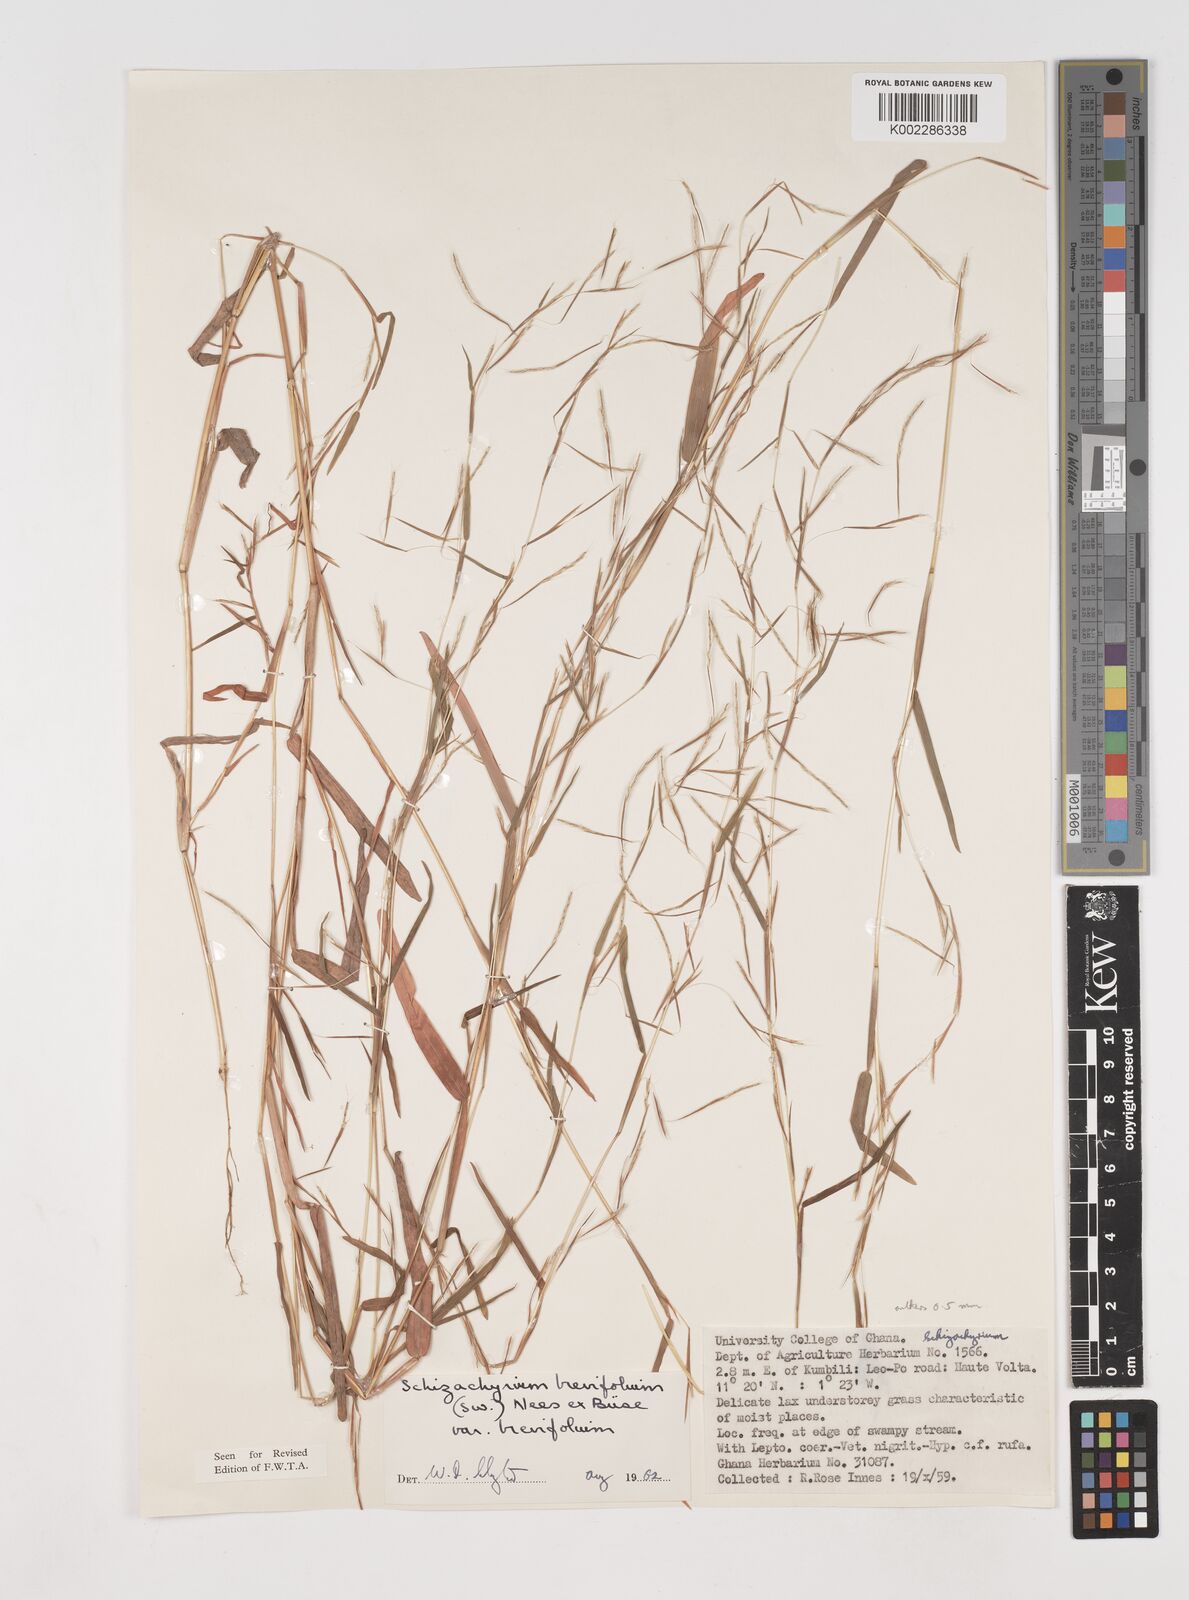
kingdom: Plantae
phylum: Tracheophyta
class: Liliopsida
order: Poales
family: Poaceae
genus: Schizachyrium
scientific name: Schizachyrium brevifolium
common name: Serillo dulce
